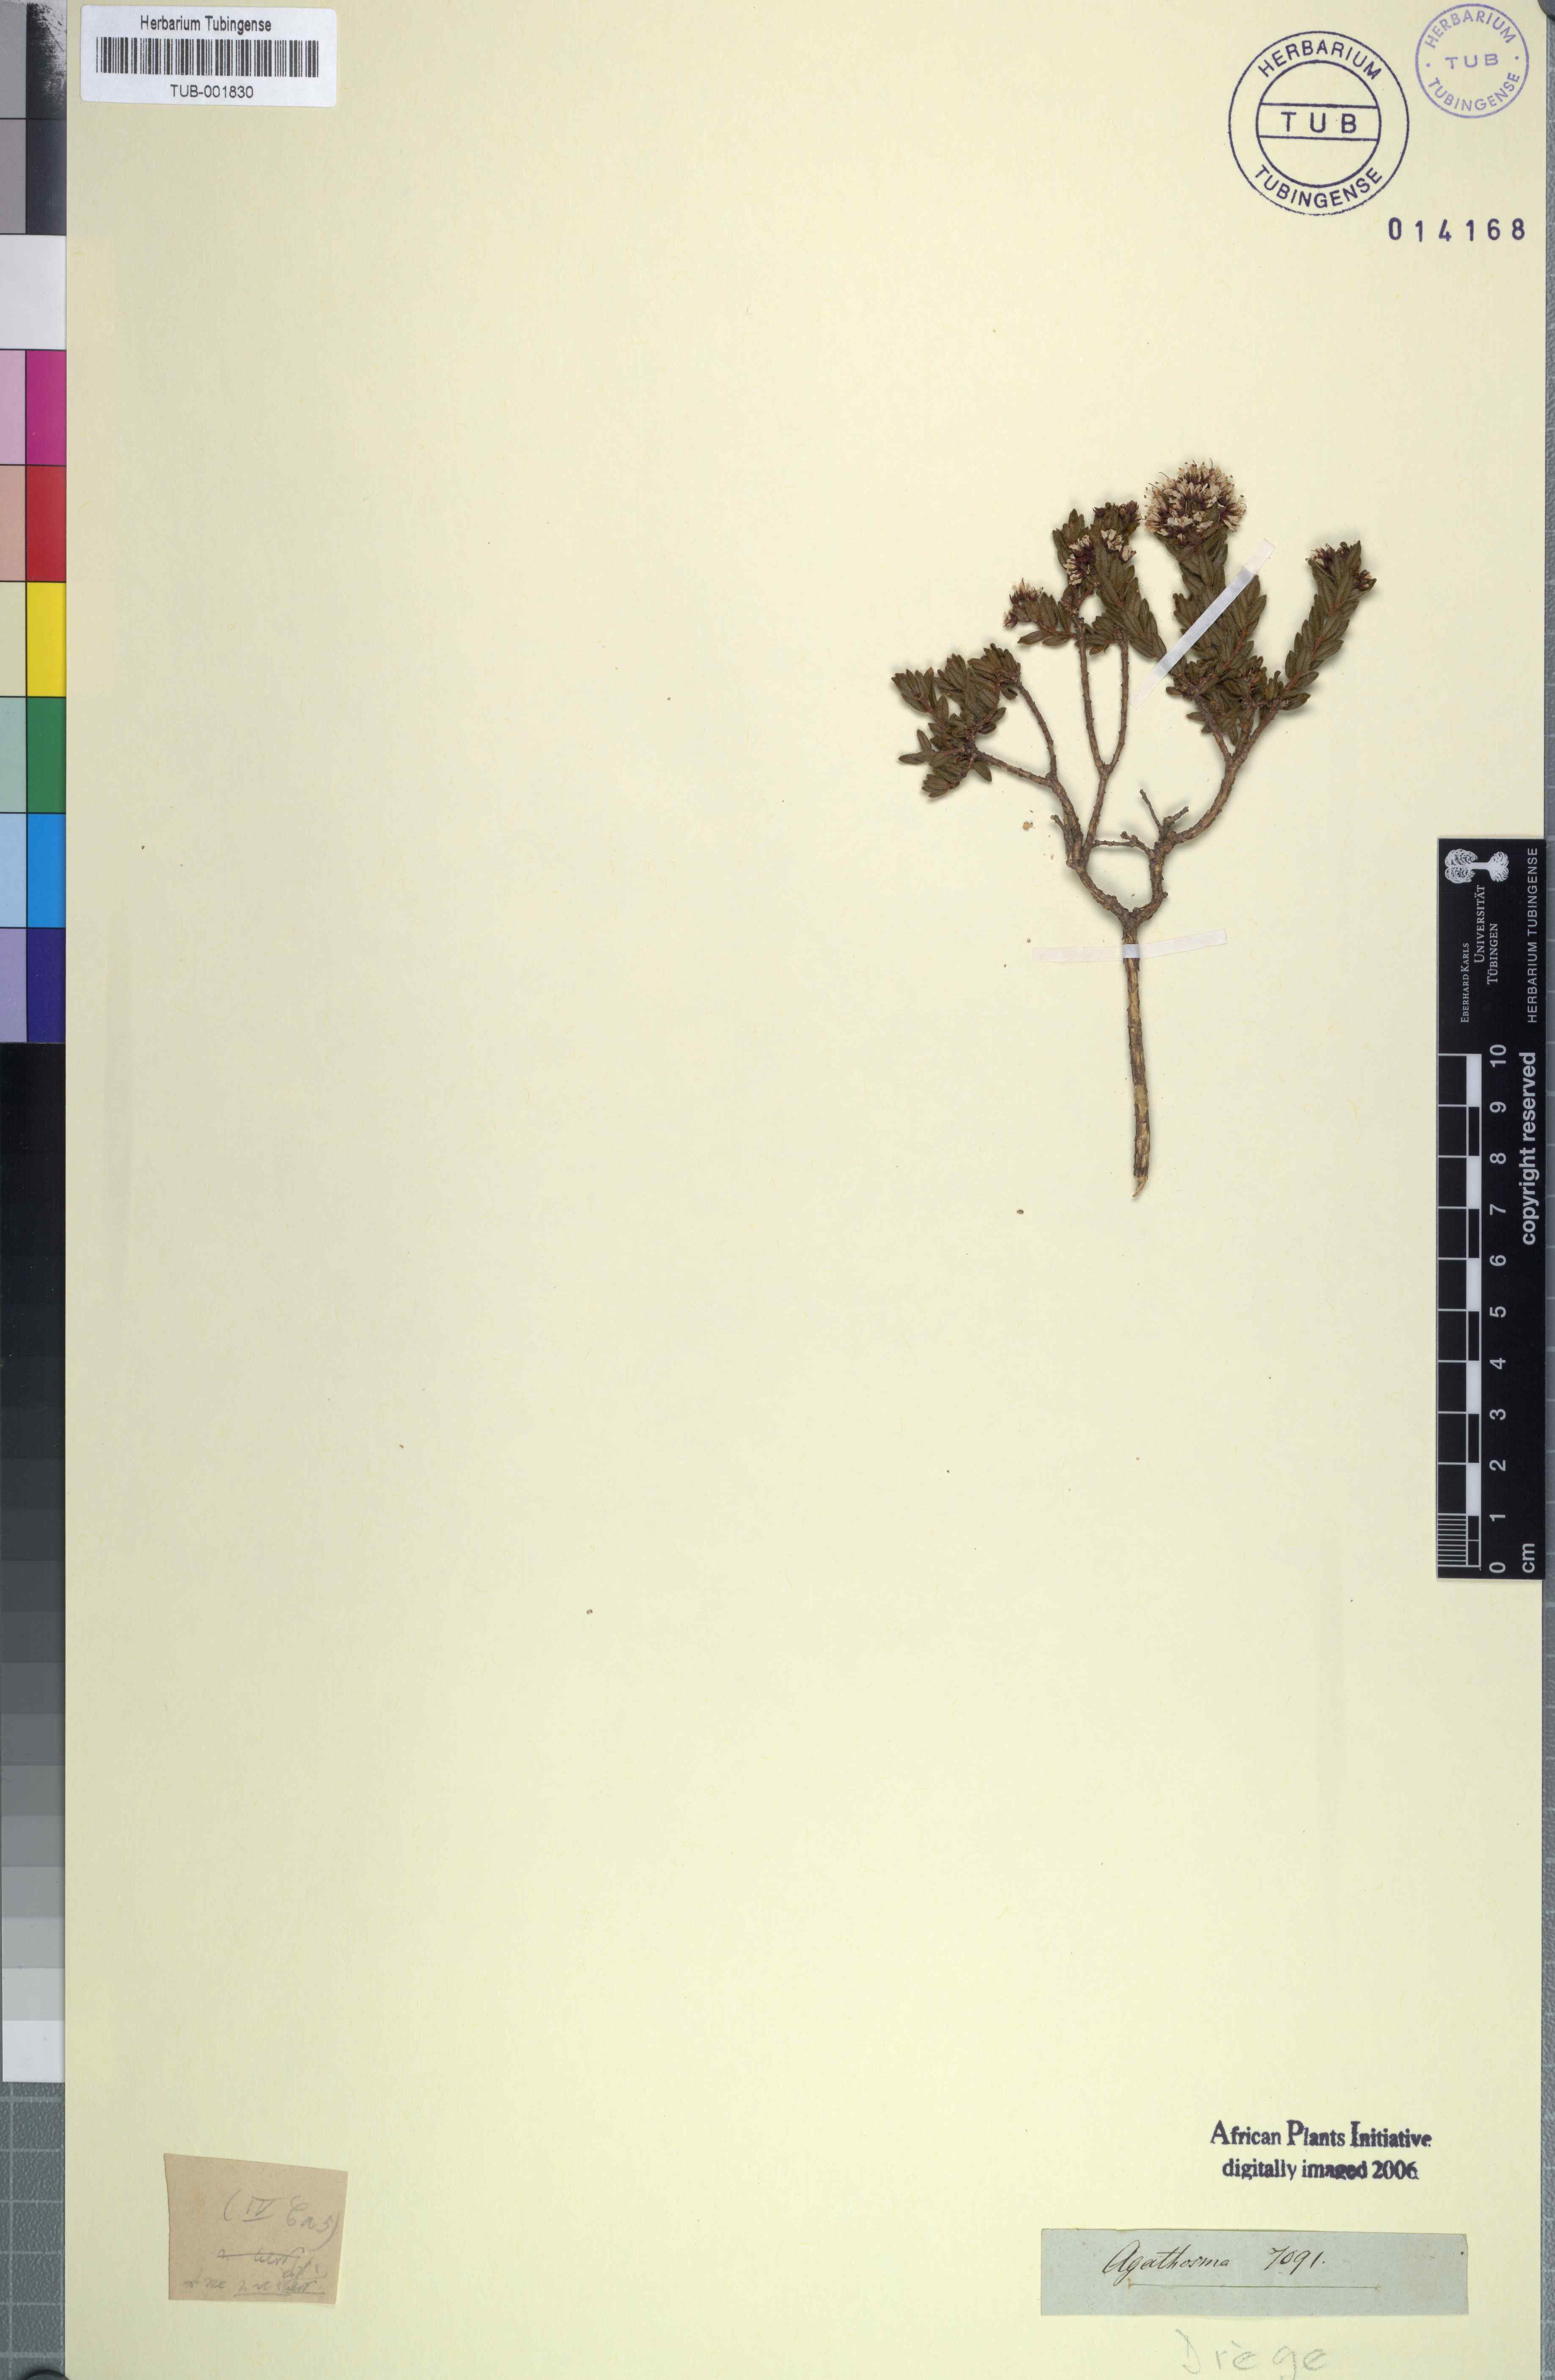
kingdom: Plantae
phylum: Tracheophyta
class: Magnoliopsida
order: Sapindales
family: Rutaceae
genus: Agathosma
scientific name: Agathosma
